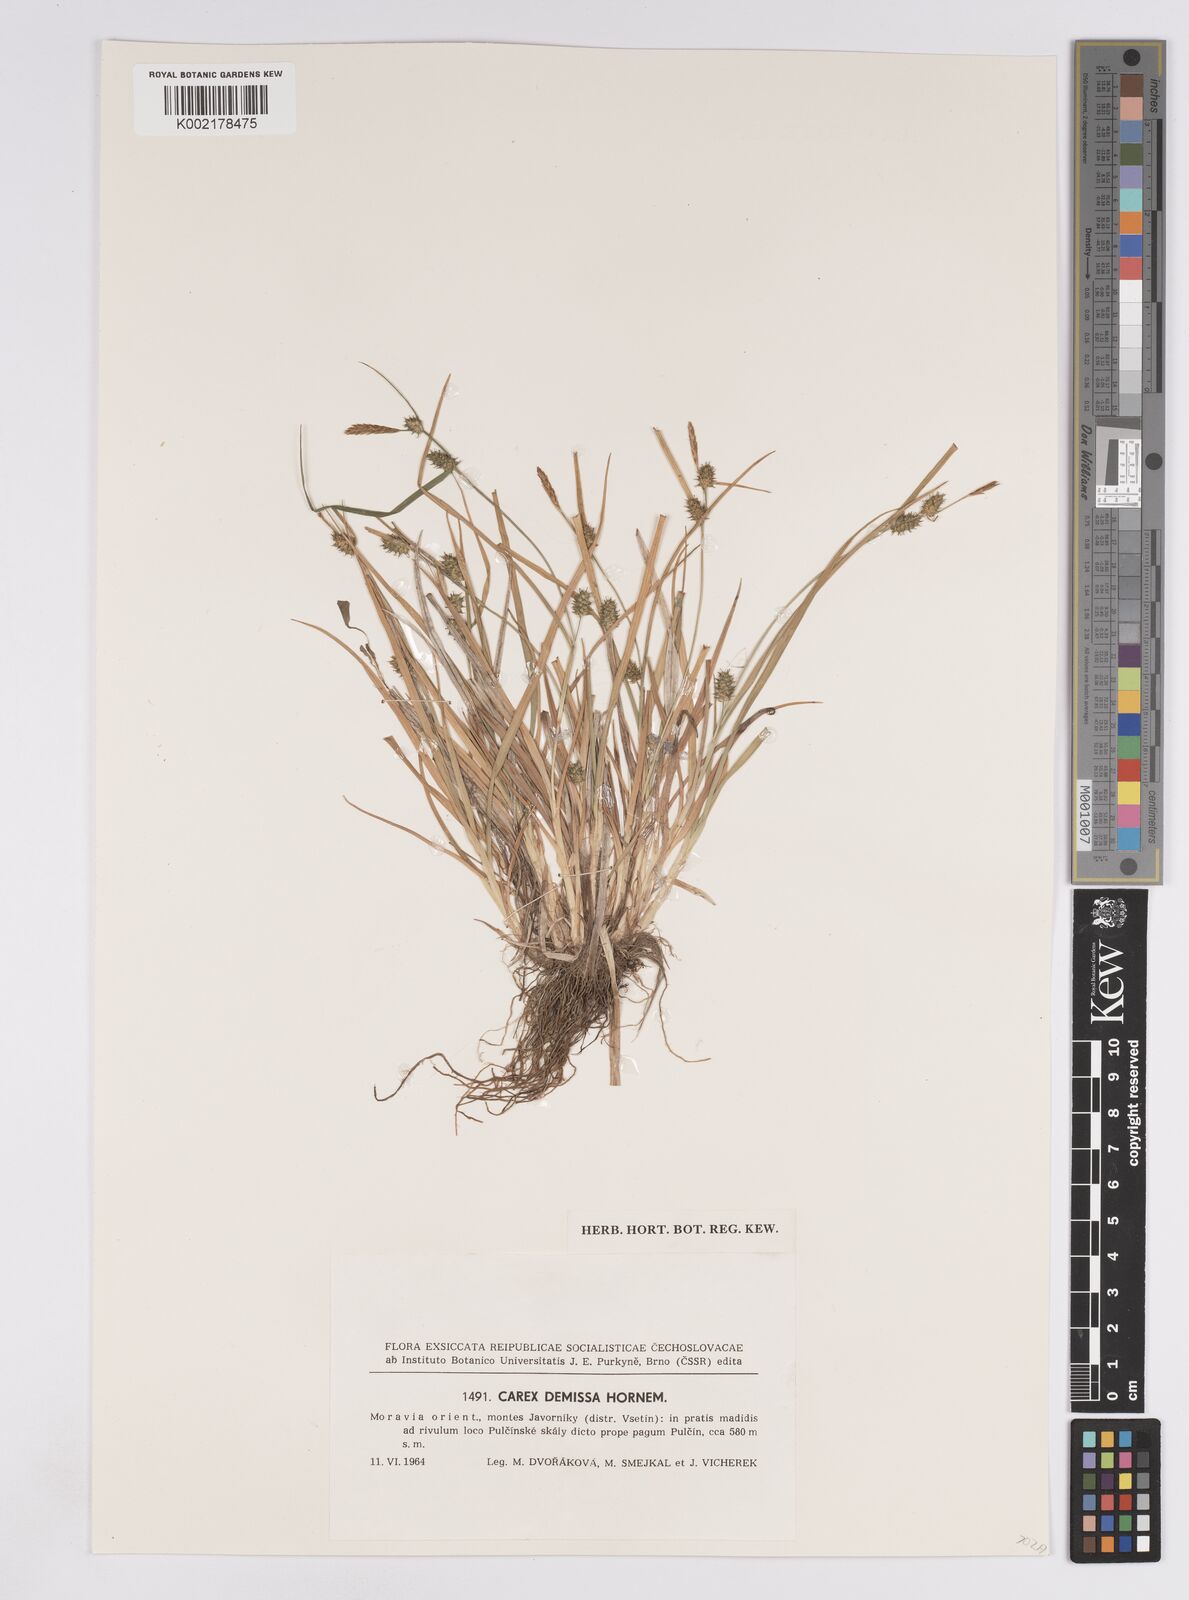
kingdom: Plantae
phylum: Tracheophyta
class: Liliopsida
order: Poales
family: Cyperaceae
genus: Carex
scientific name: Carex demissa
